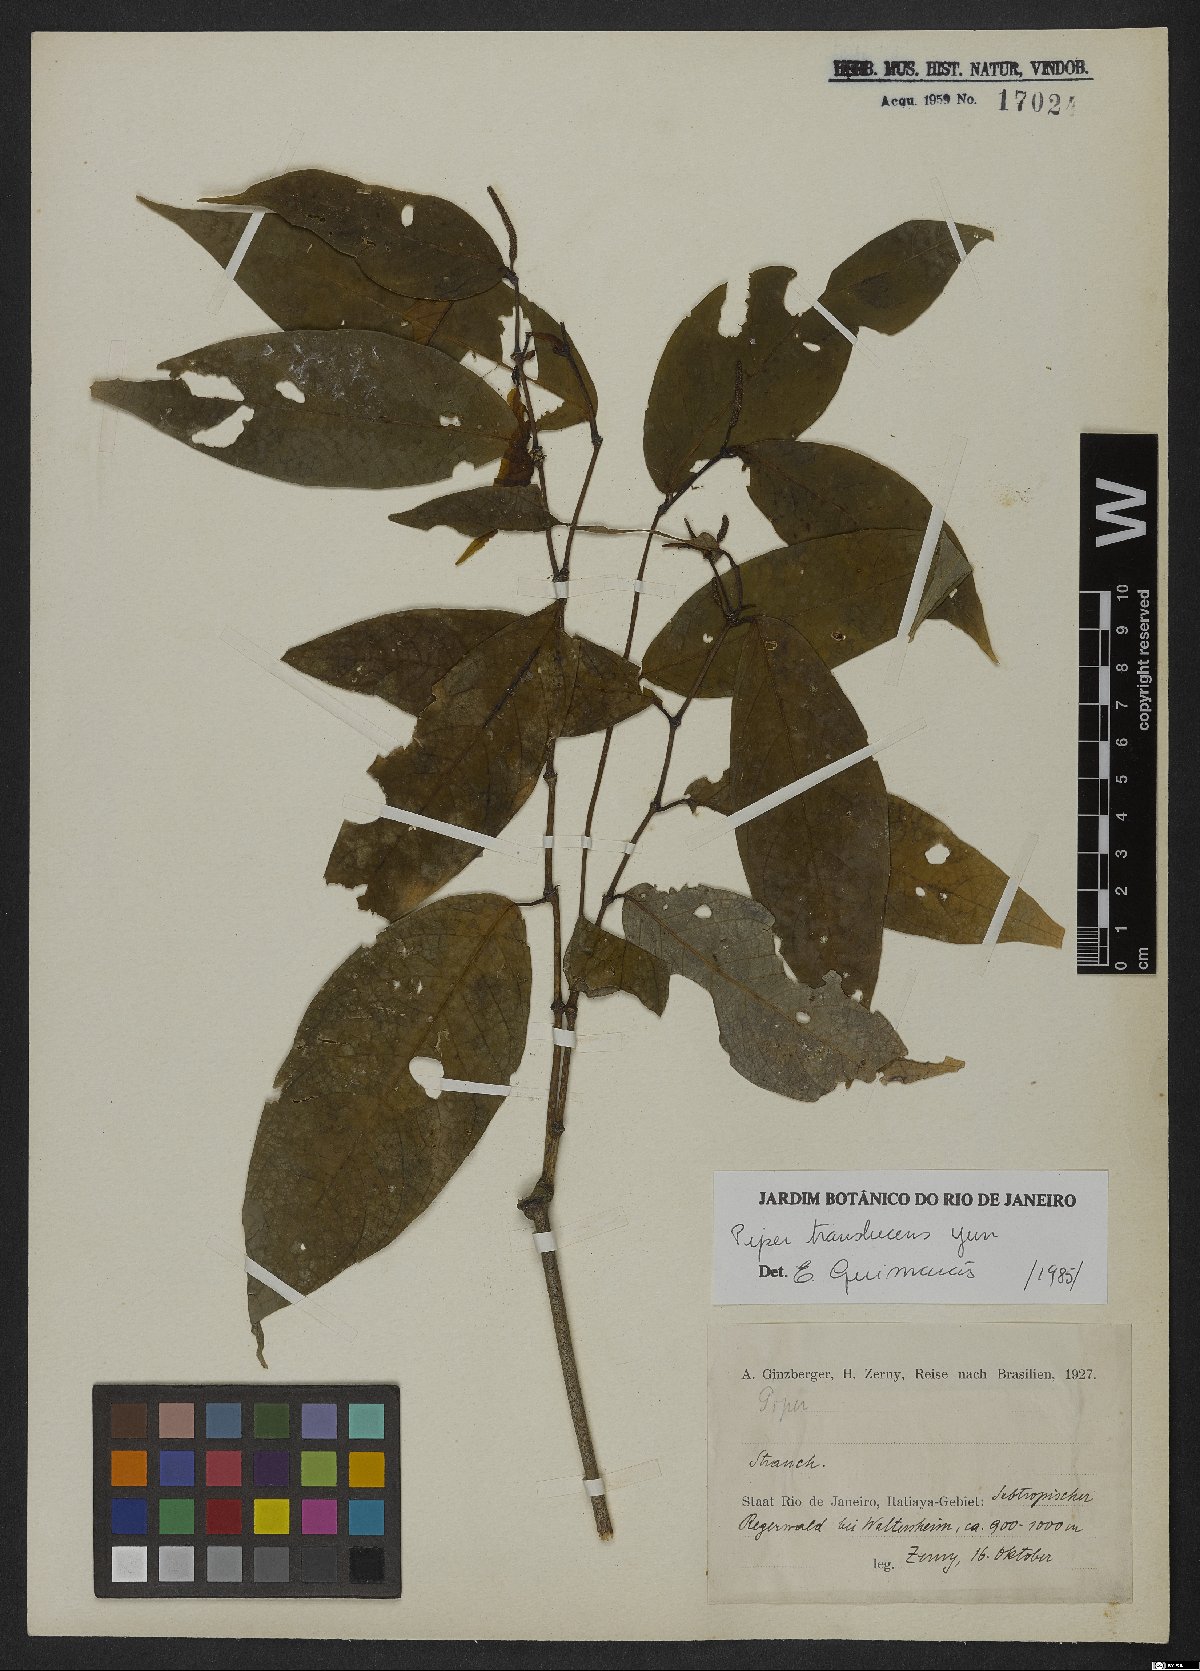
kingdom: Plantae
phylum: Tracheophyta
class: Magnoliopsida
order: Piperales
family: Piperaceae
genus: Piper
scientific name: Piper translucens
